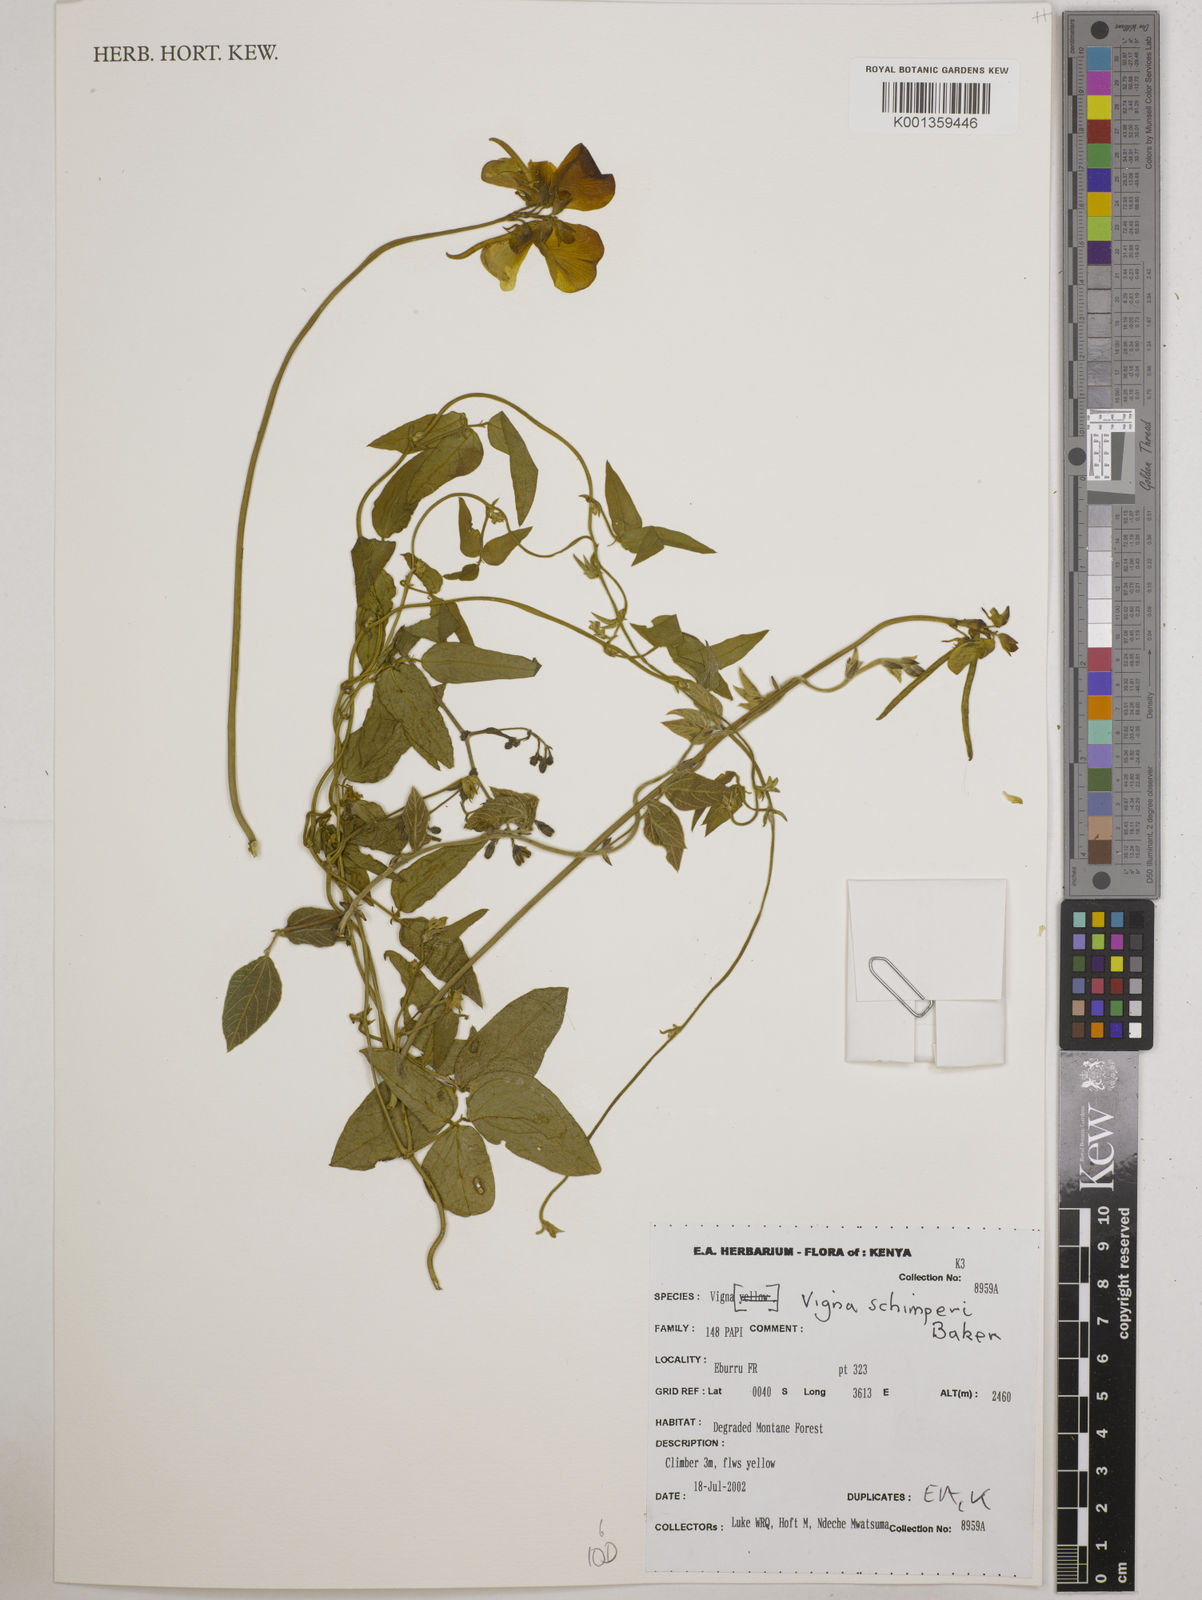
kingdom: Plantae
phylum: Tracheophyta
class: Magnoliopsida
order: Fabales
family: Fabaceae
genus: Vigna
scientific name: Vigna schimperi
